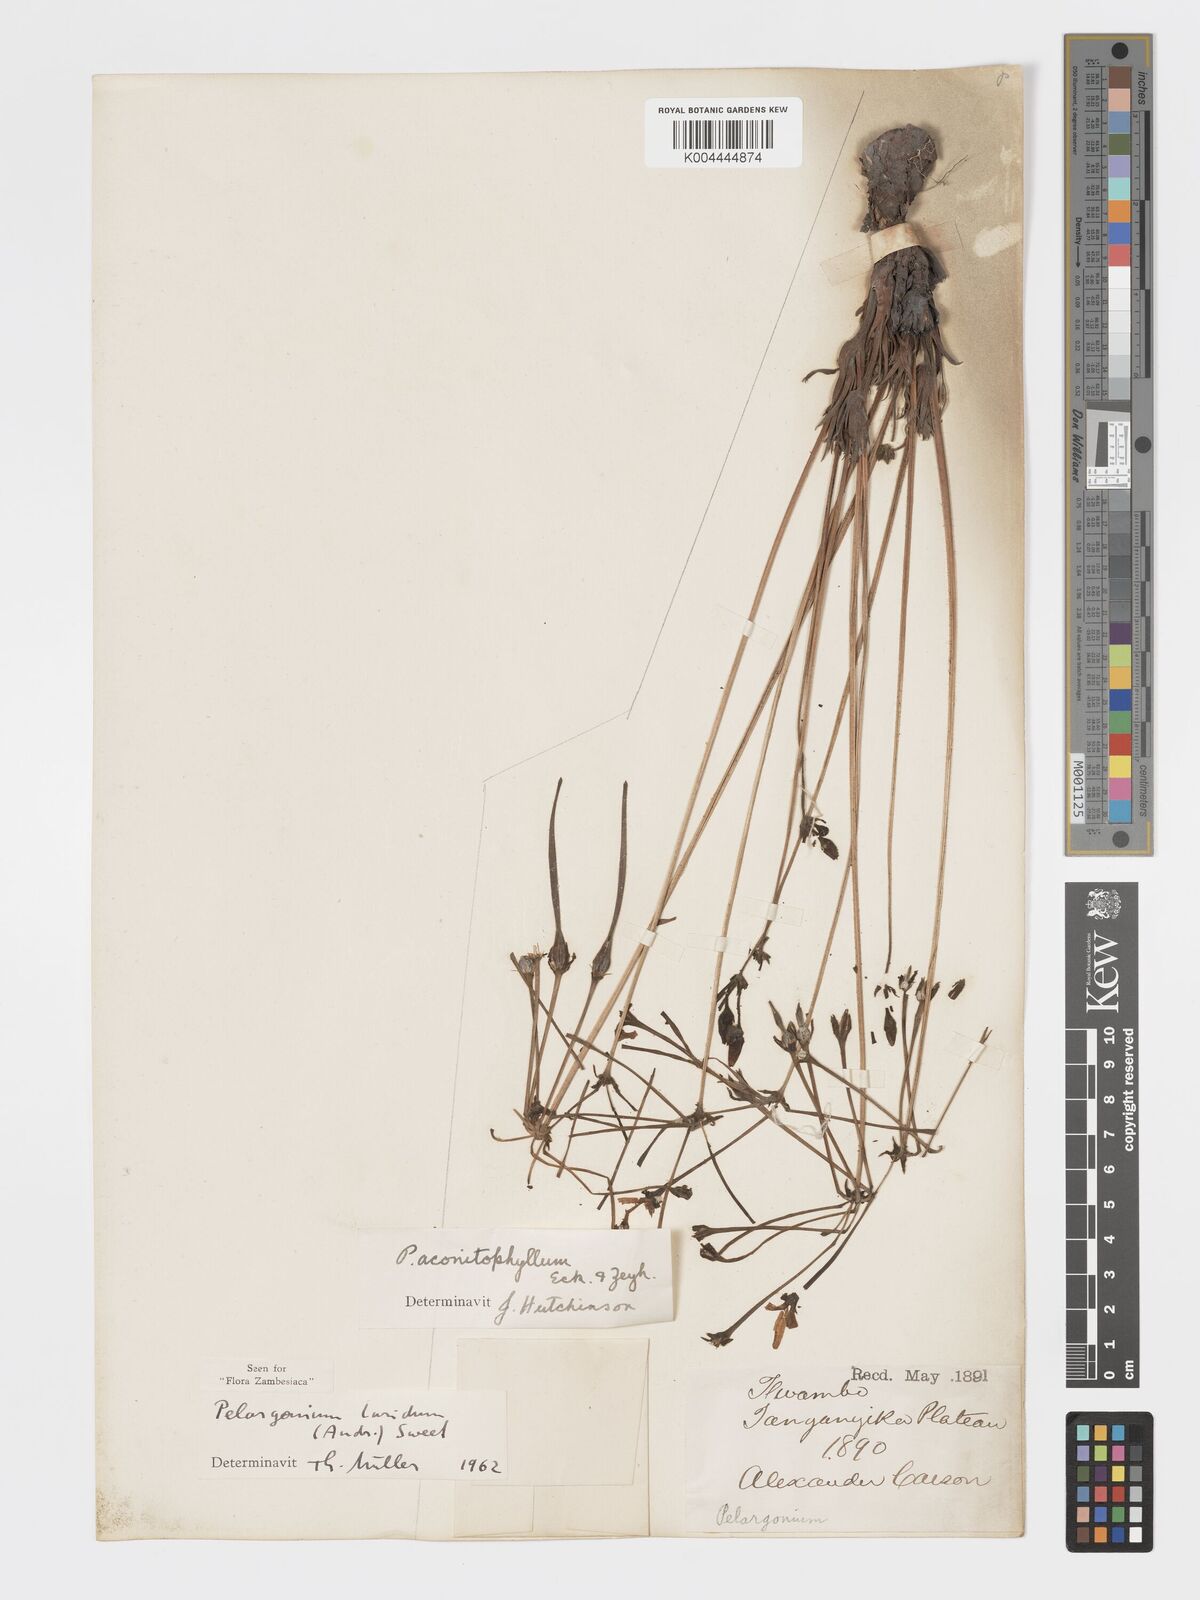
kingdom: Plantae
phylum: Tracheophyta
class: Magnoliopsida
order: Geraniales
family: Geraniaceae
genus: Pelargonium
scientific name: Pelargonium luridum
